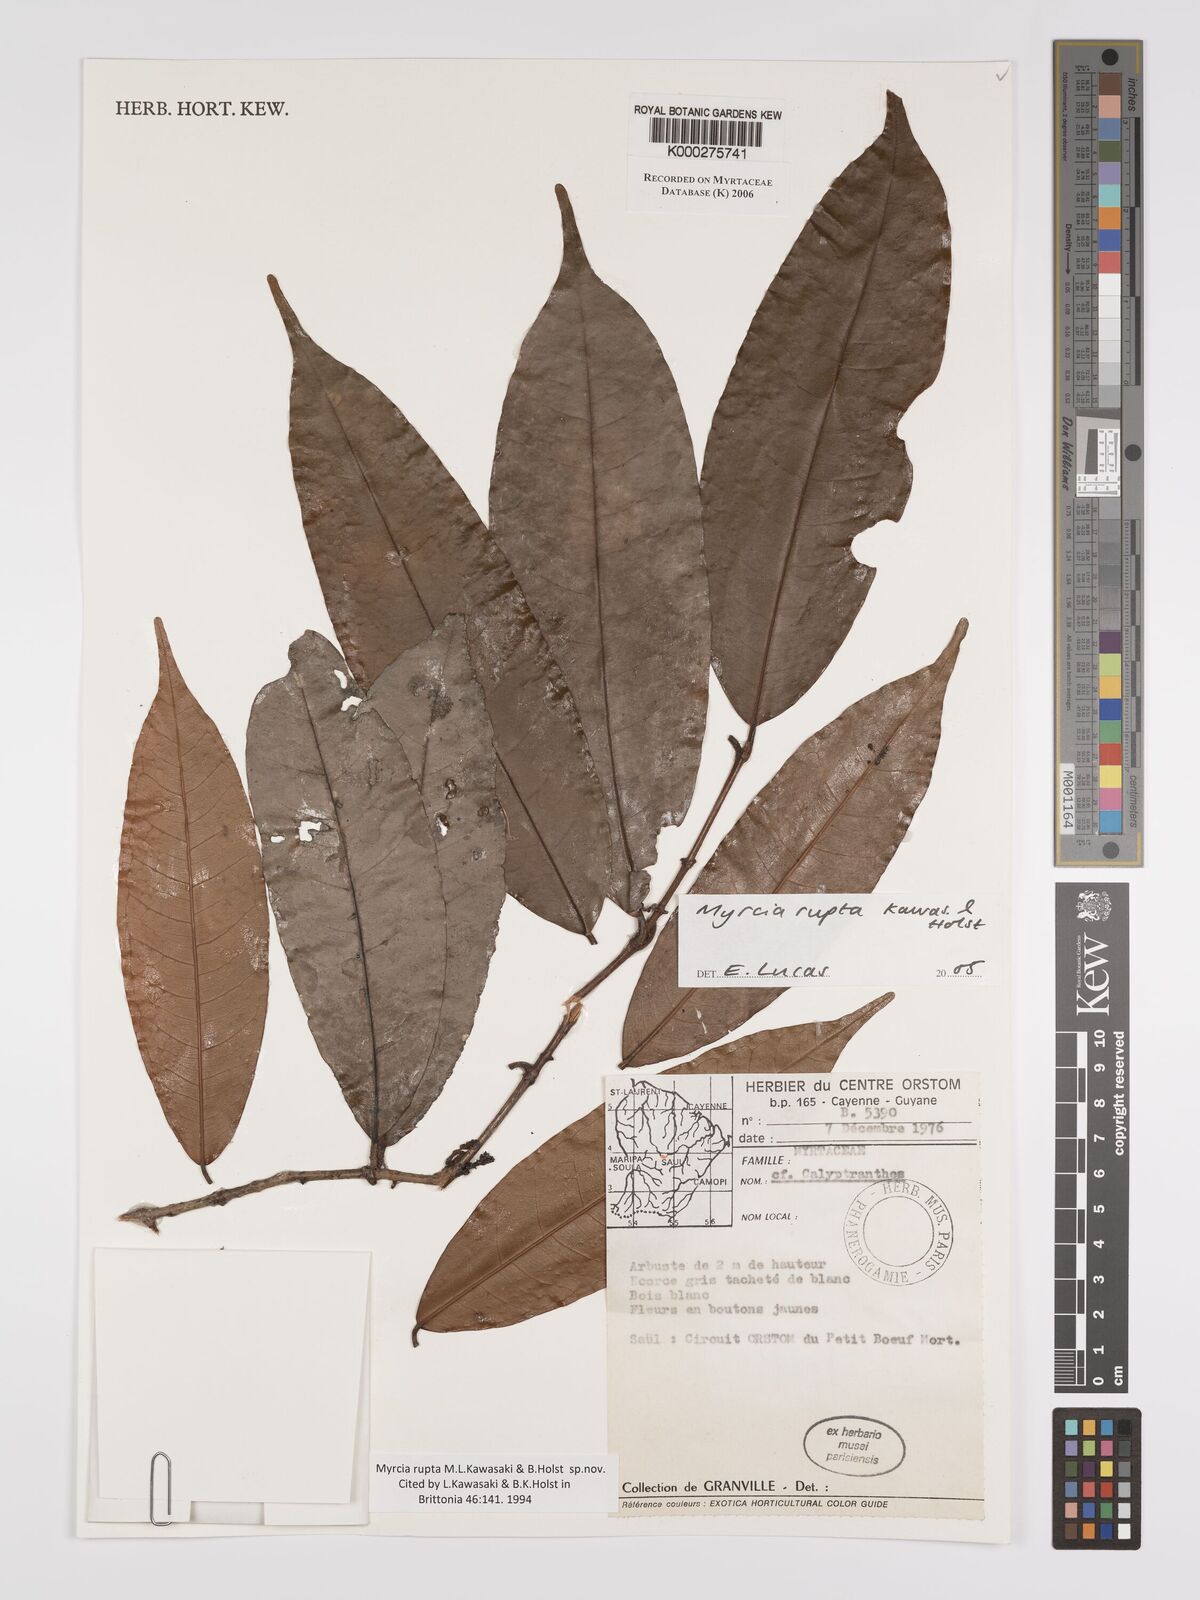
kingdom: Plantae
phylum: Tracheophyta
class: Magnoliopsida
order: Myrtales
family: Myrtaceae
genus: Myrcia
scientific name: Myrcia rupta
